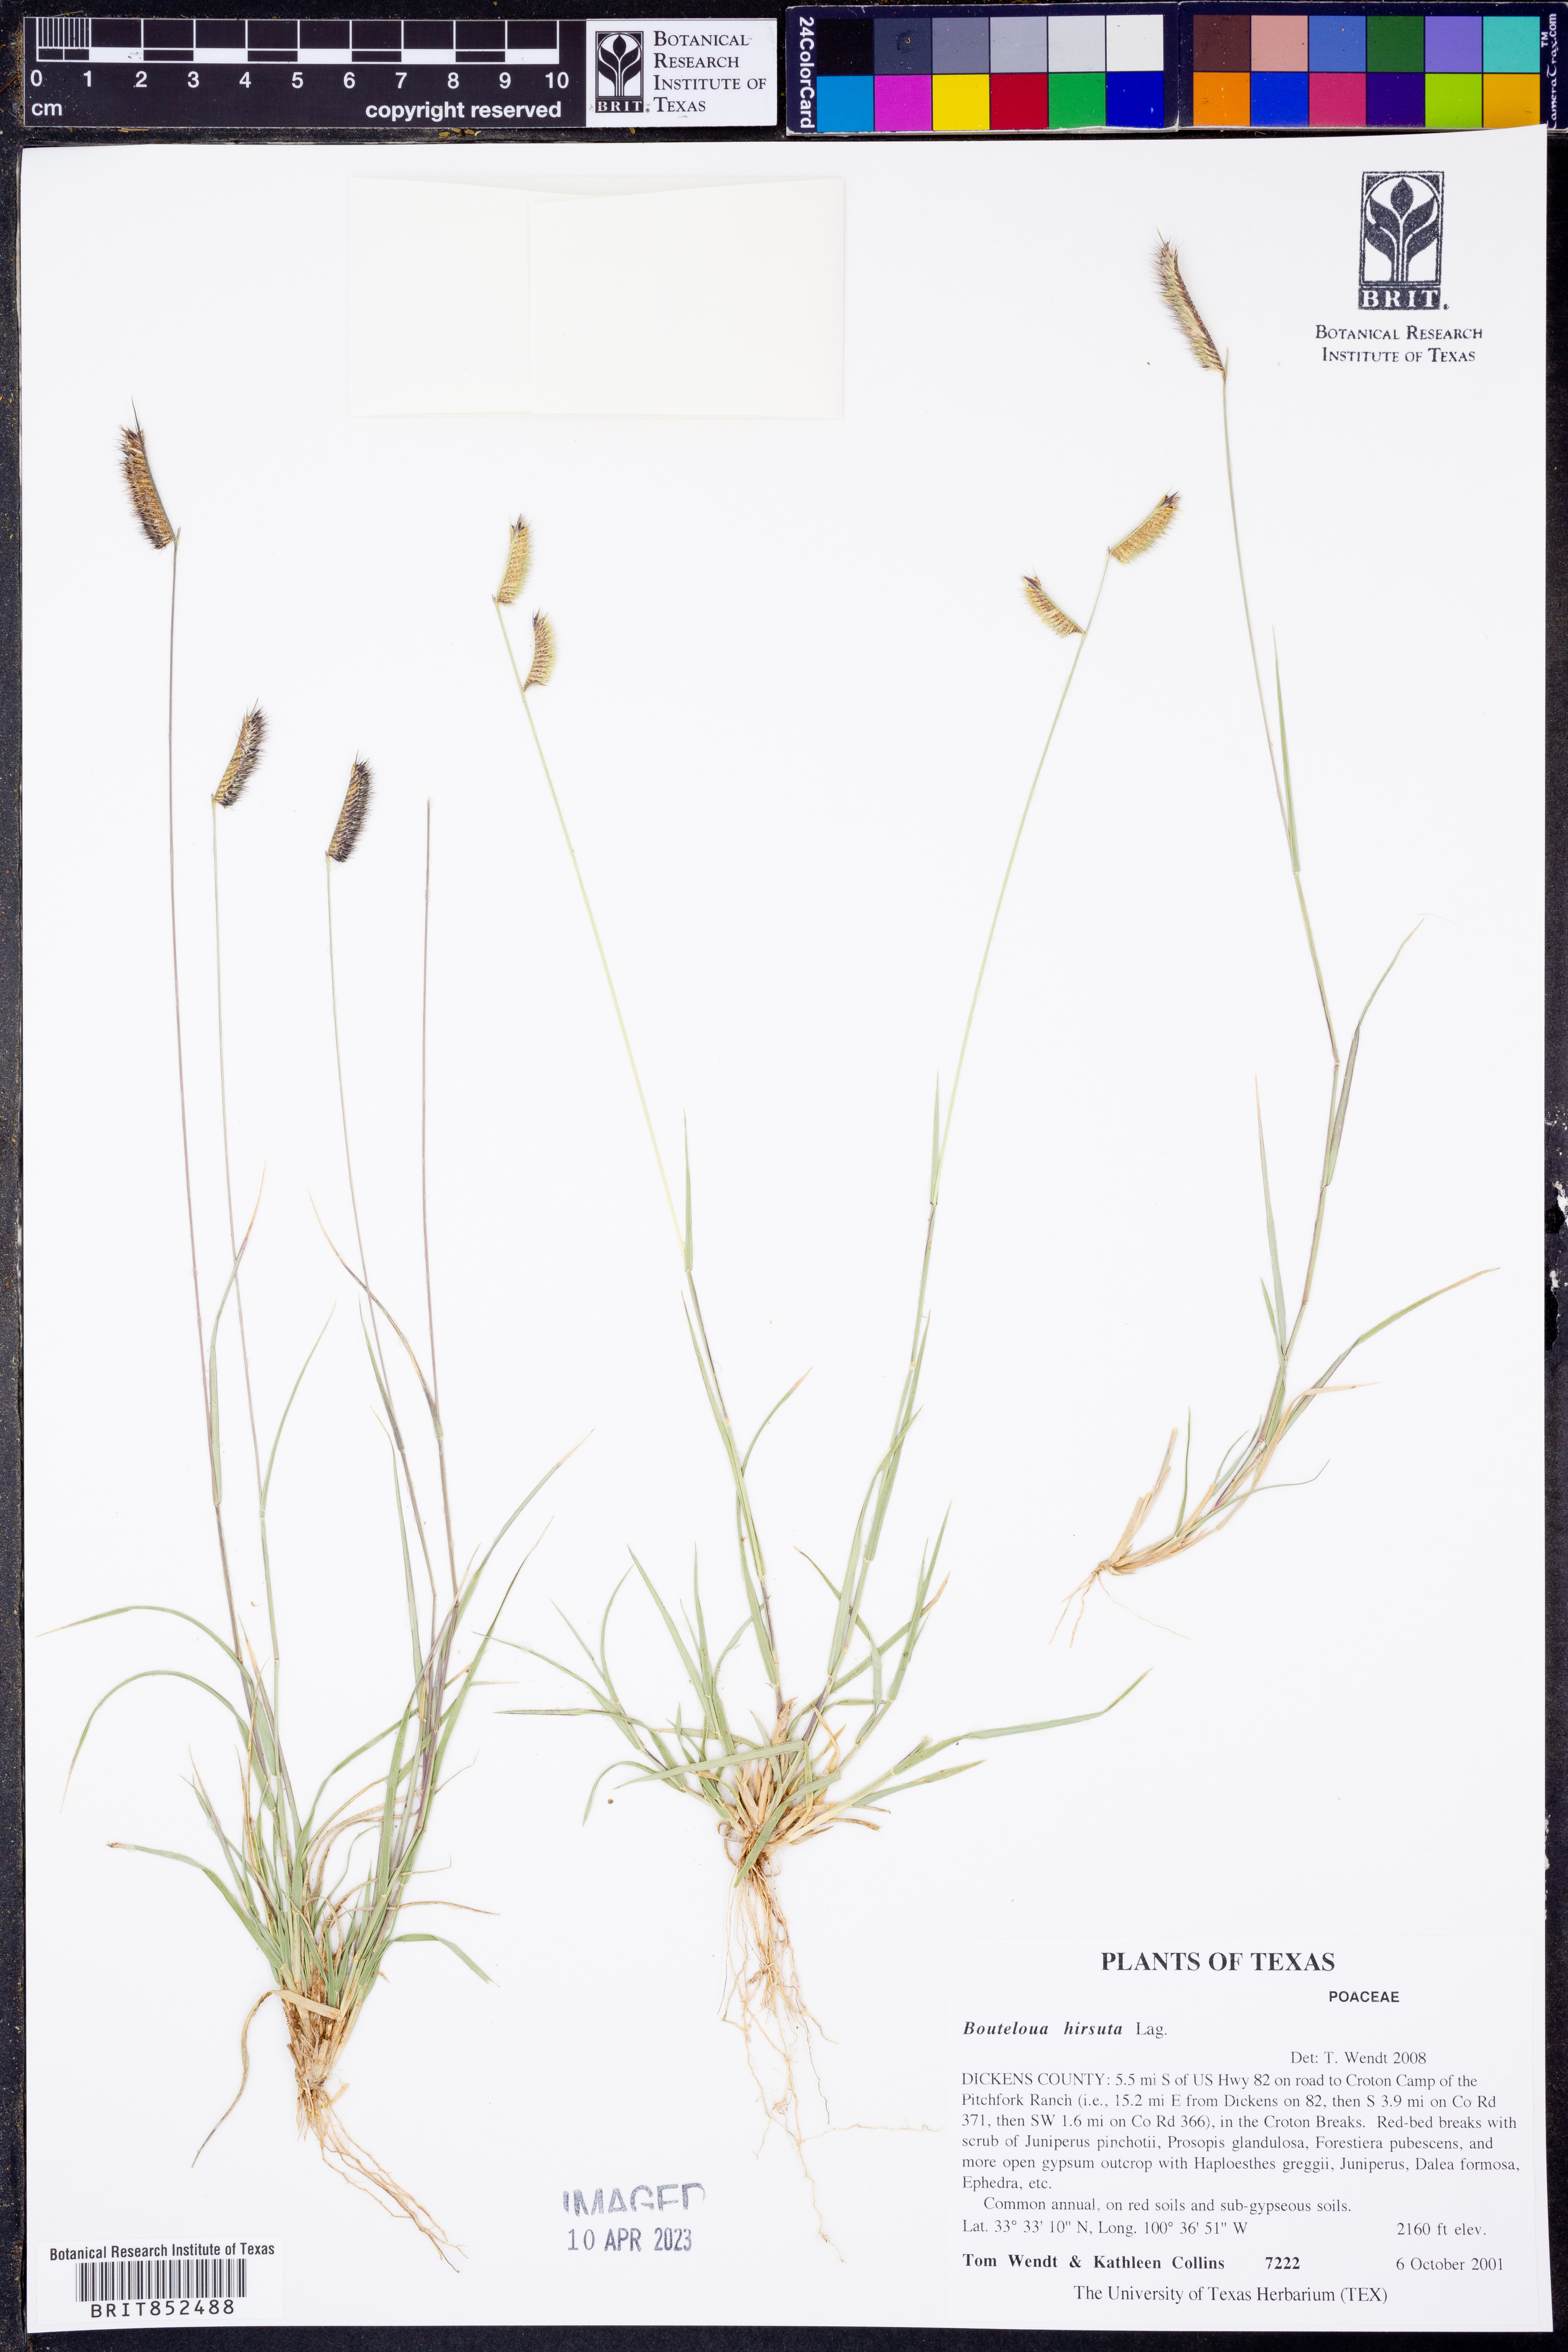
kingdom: Plantae
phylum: Tracheophyta
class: Liliopsida
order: Poales
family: Poaceae
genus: Bouteloua
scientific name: Bouteloua hirsuta
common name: Hairy grama
